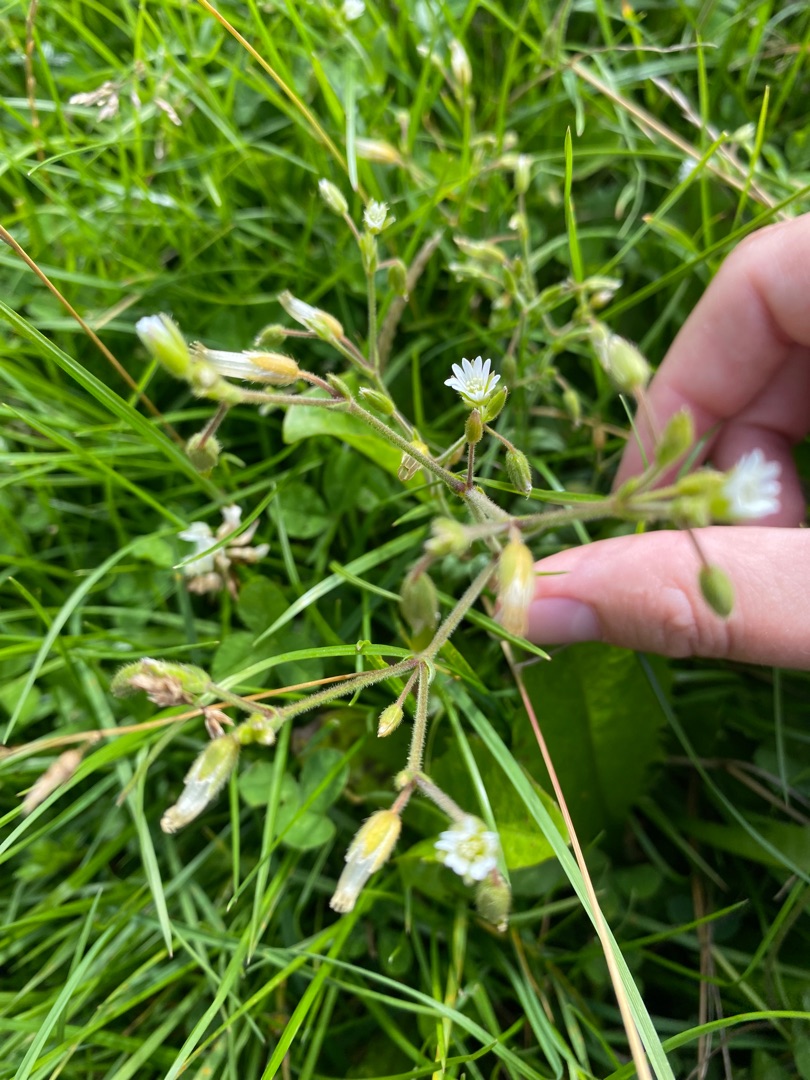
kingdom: Plantae
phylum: Tracheophyta
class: Magnoliopsida
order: Caryophyllales
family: Caryophyllaceae
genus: Cerastium
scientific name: Cerastium fontanum
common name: Almindelig hønsetarm
